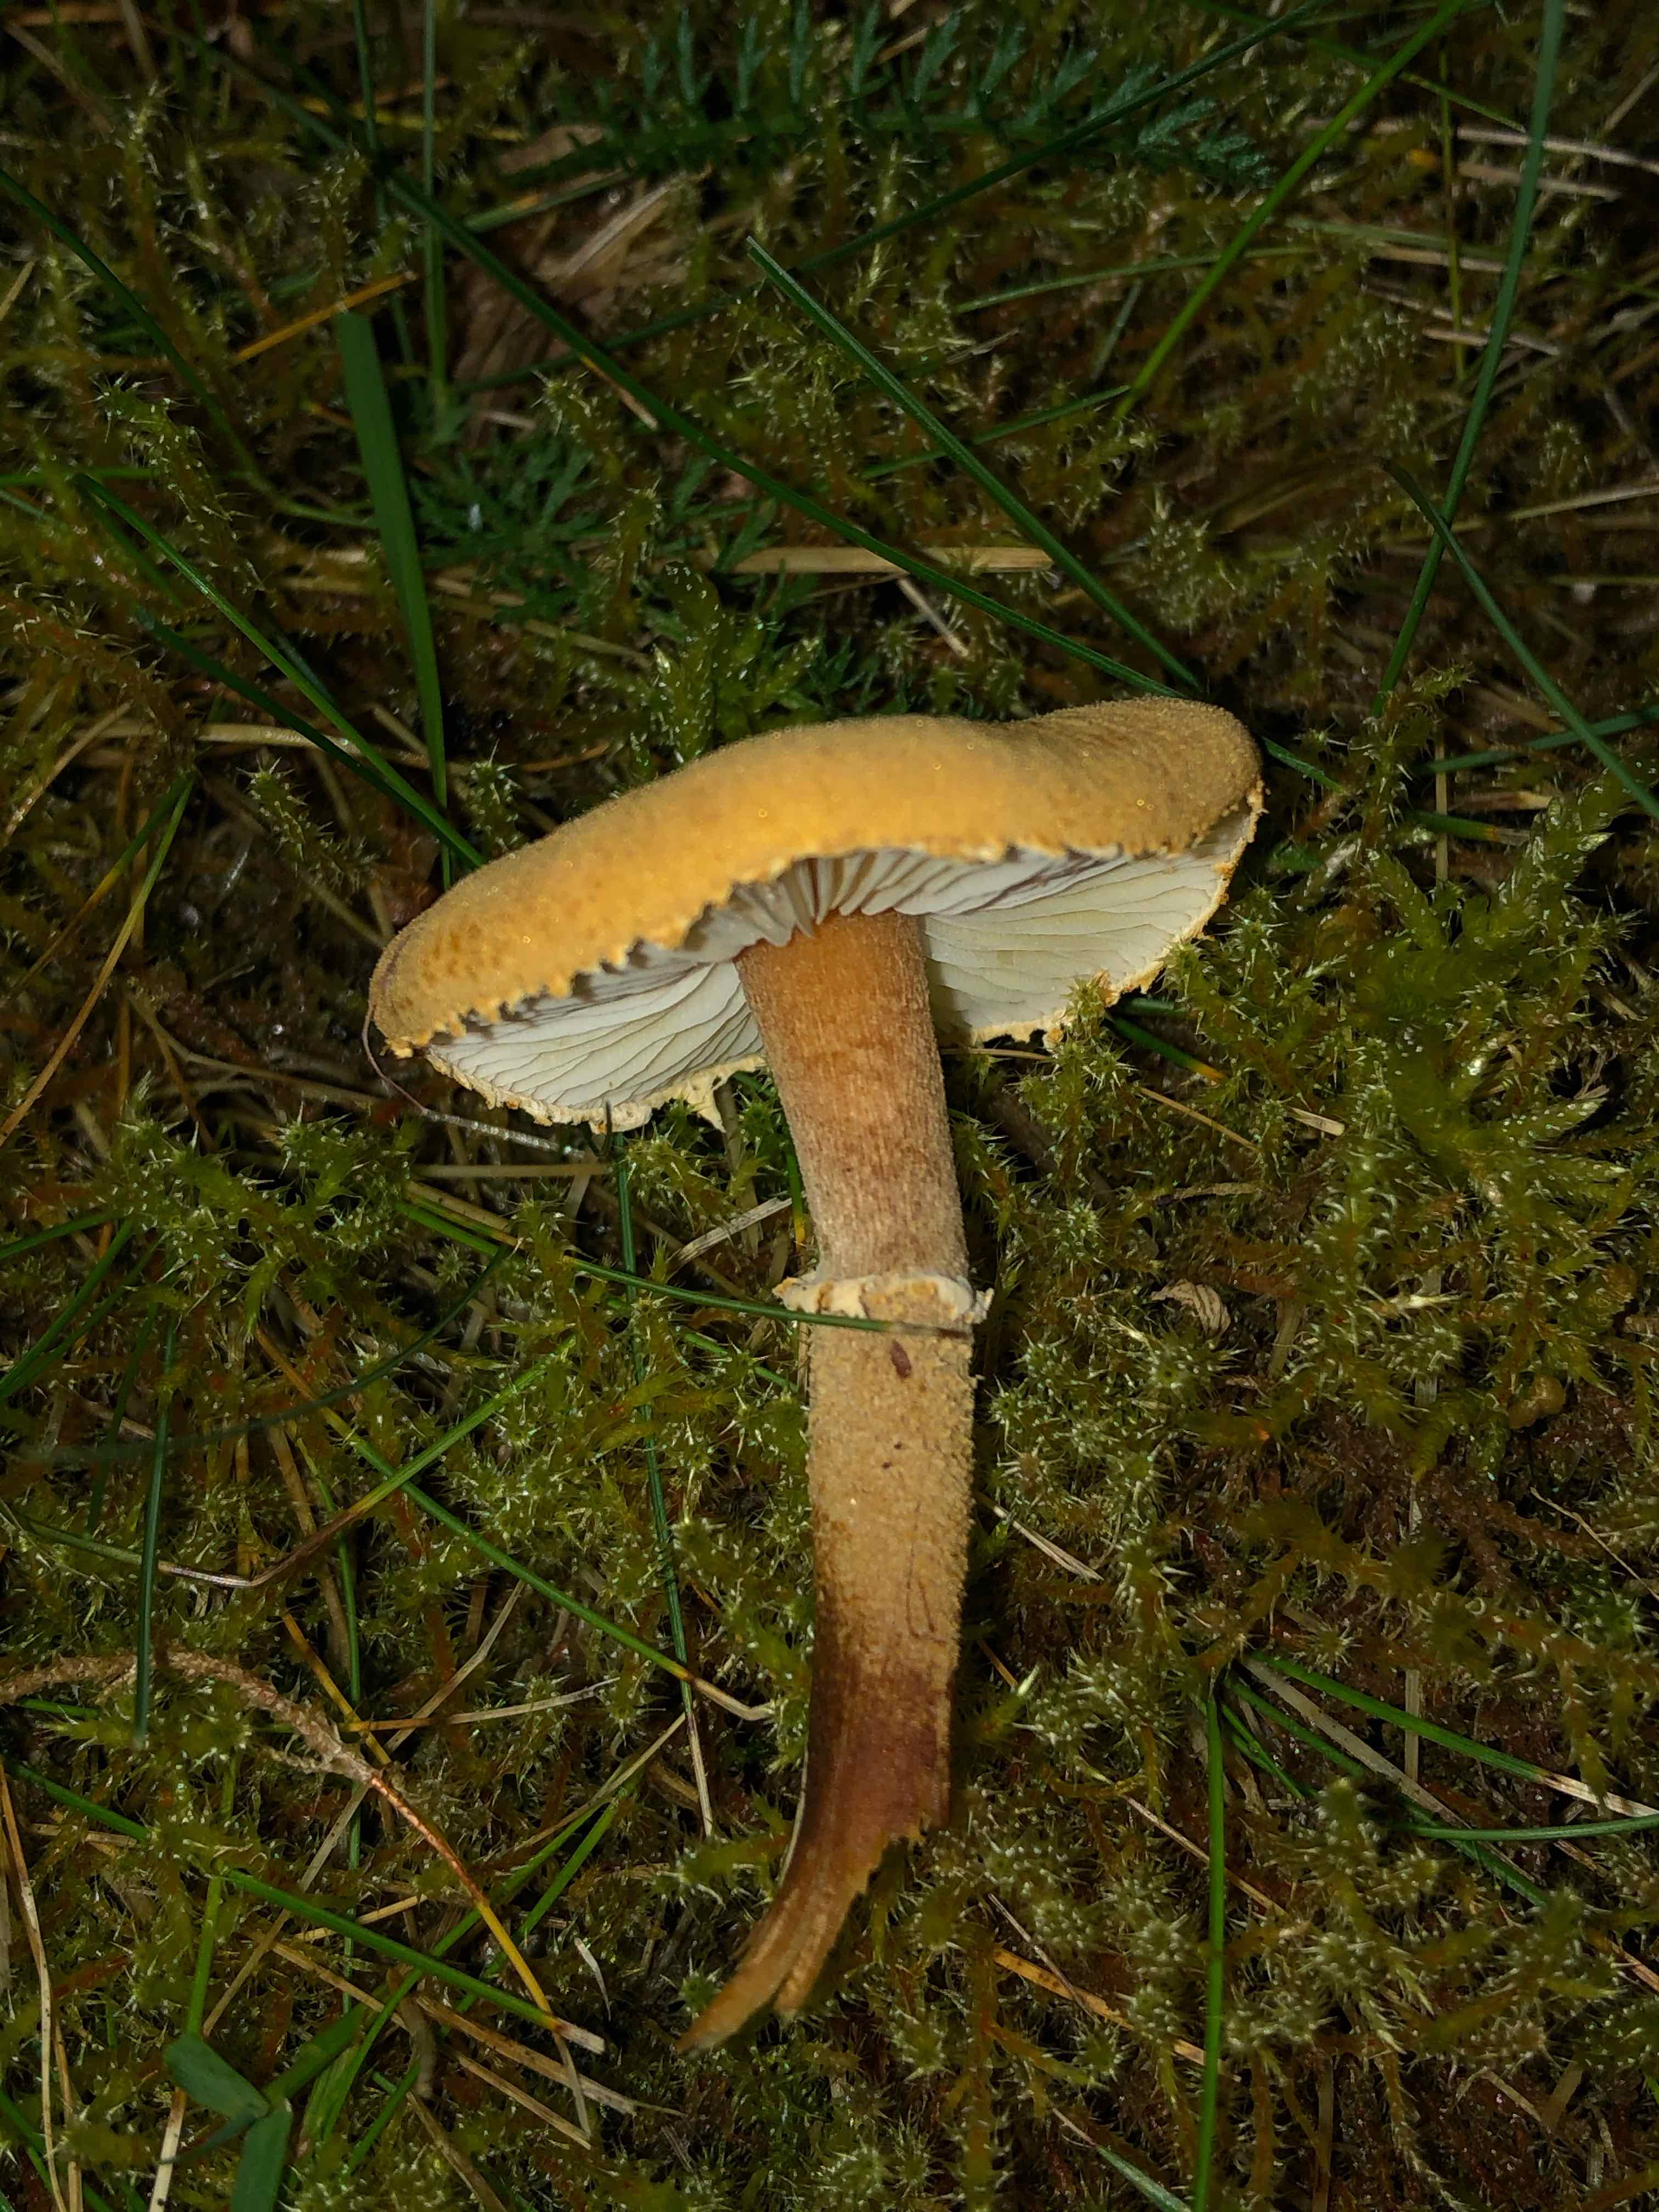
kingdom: Fungi
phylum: Basidiomycota
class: Agaricomycetes
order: Agaricales
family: Tricholomataceae
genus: Cystoderma
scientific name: Cystoderma amianthinum
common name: okkergul grynhat
